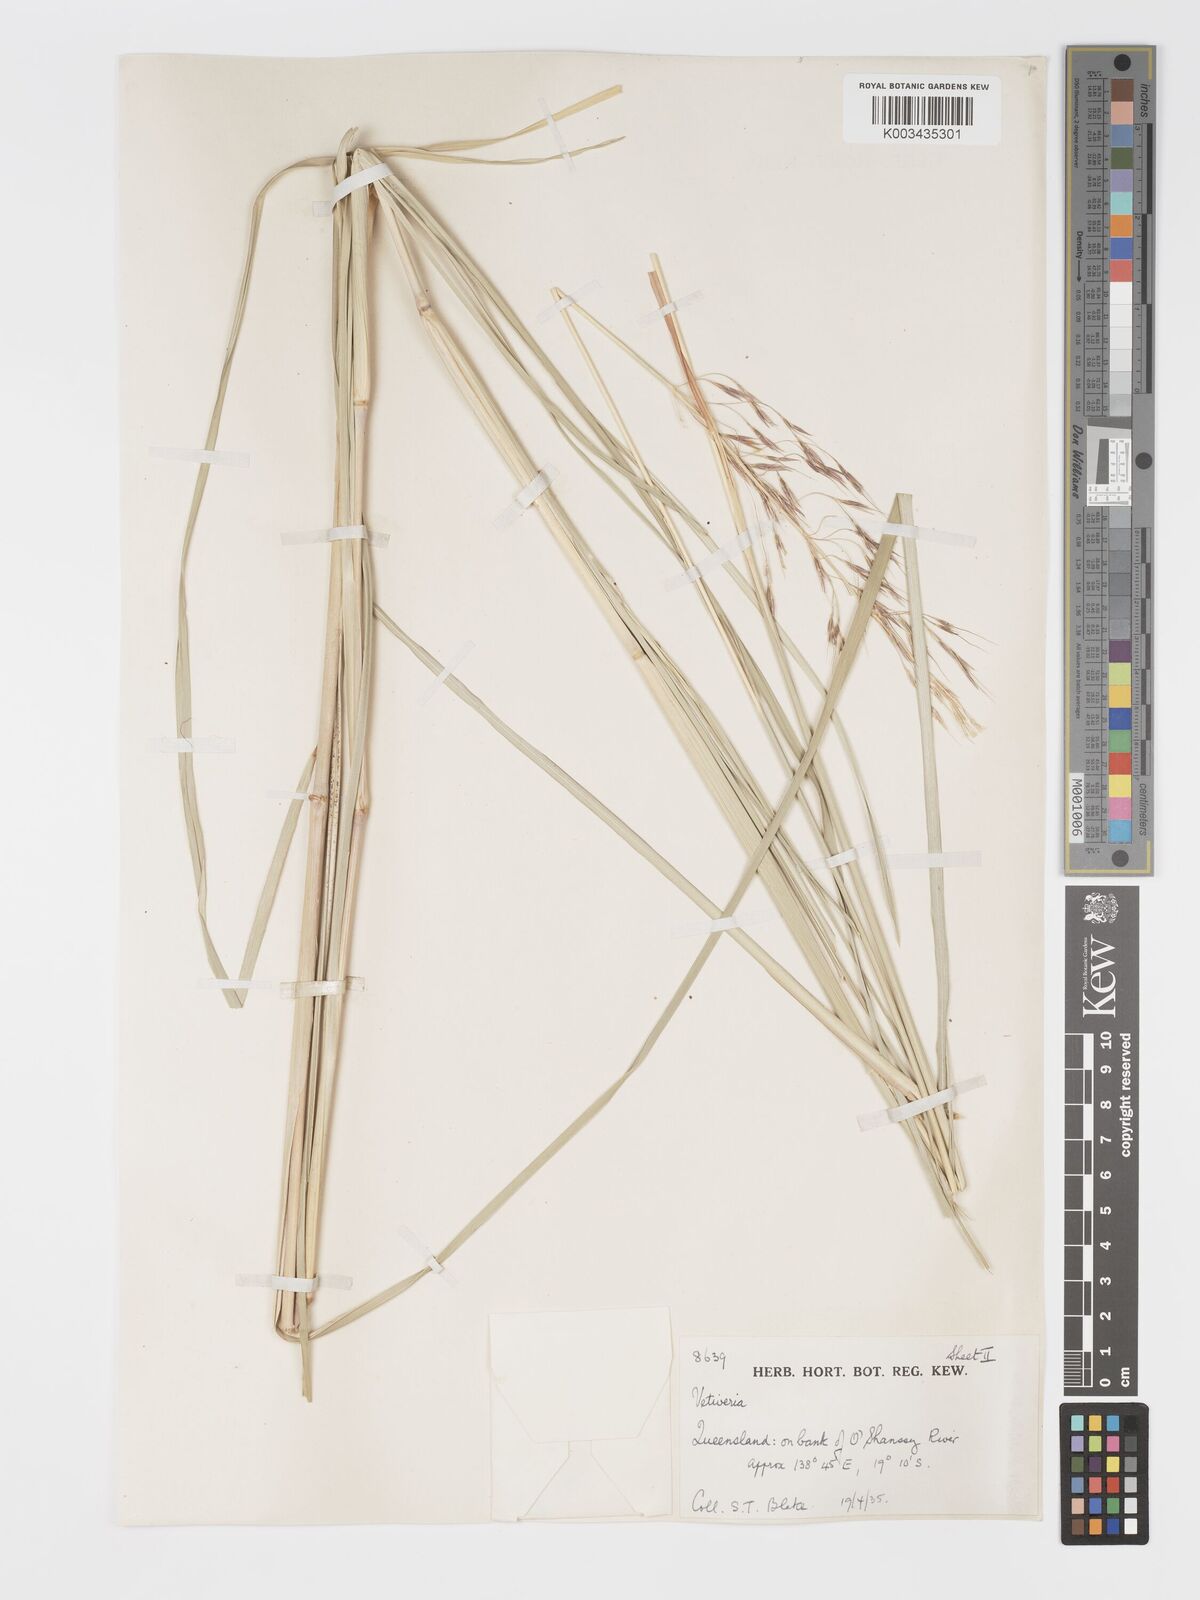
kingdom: Plantae
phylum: Tracheophyta
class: Liliopsida
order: Poales
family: Poaceae
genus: Chrysopogon
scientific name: Chrysopogon filipes
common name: Australian vetiver
